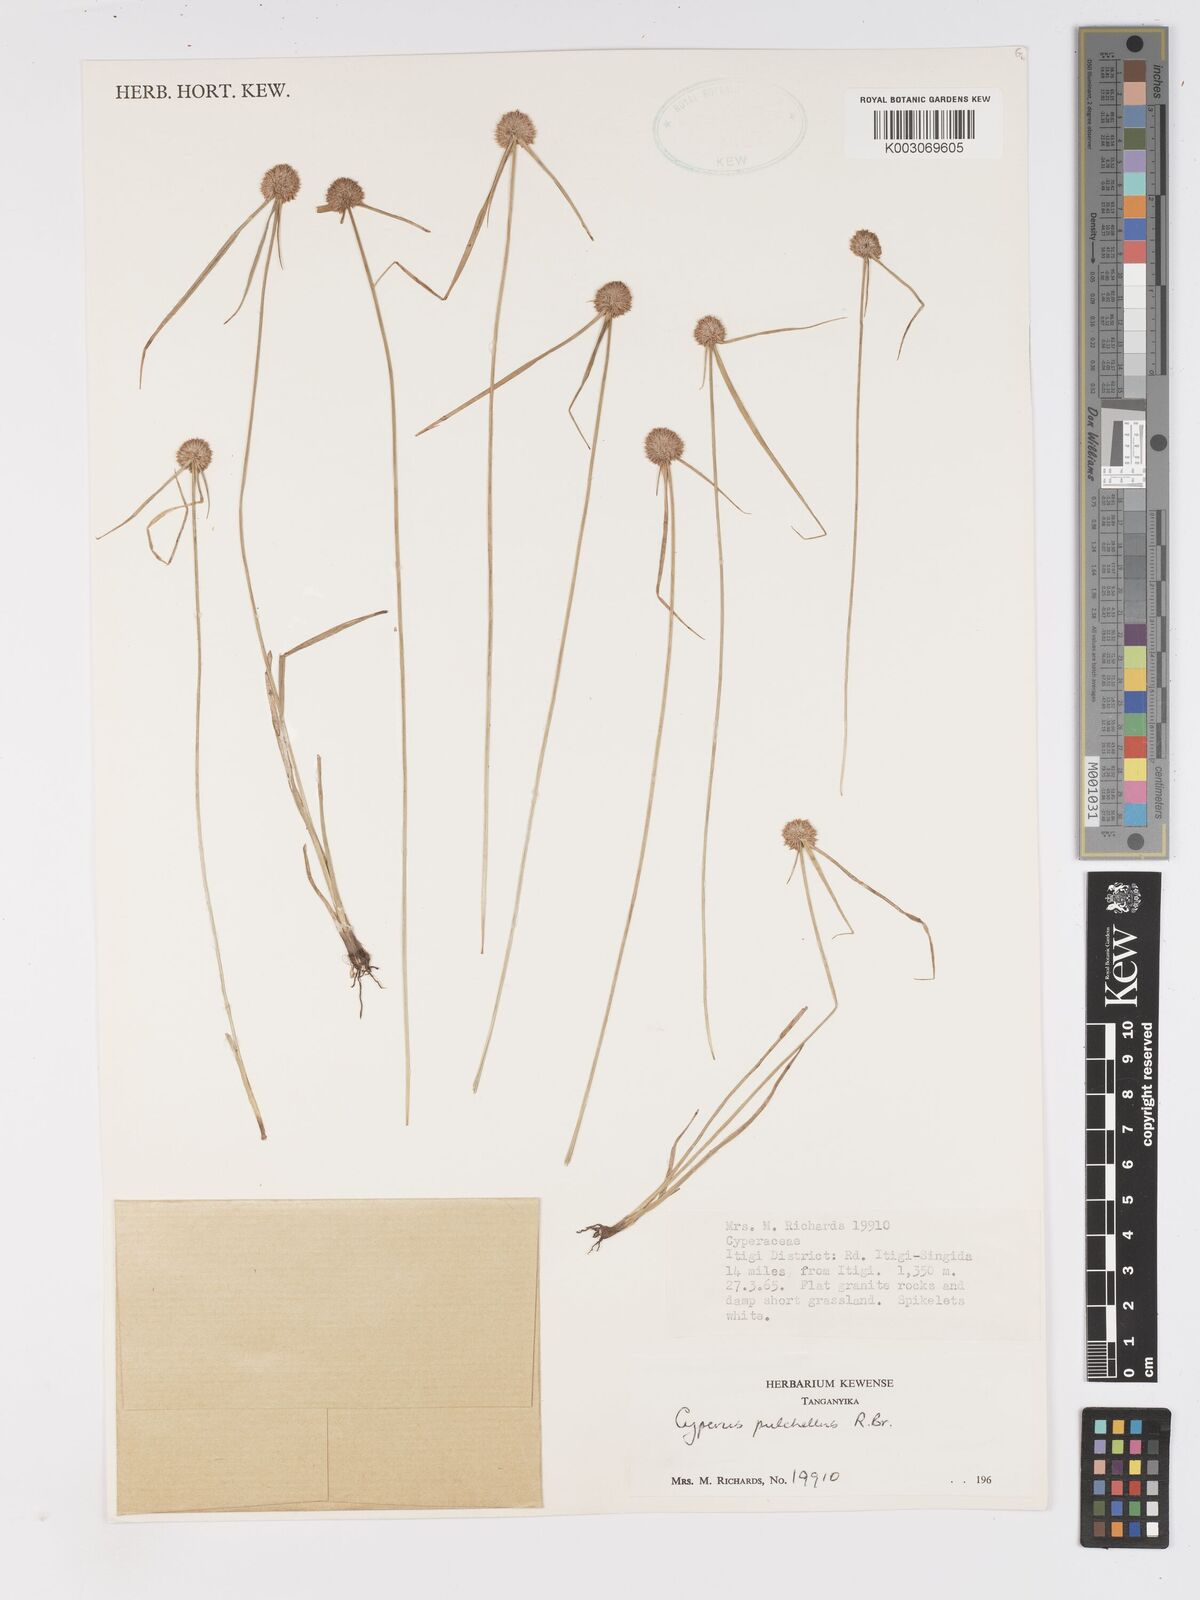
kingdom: Plantae
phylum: Tracheophyta
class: Liliopsida
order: Poales
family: Cyperaceae
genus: Cyperus
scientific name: Cyperus pulchellus
